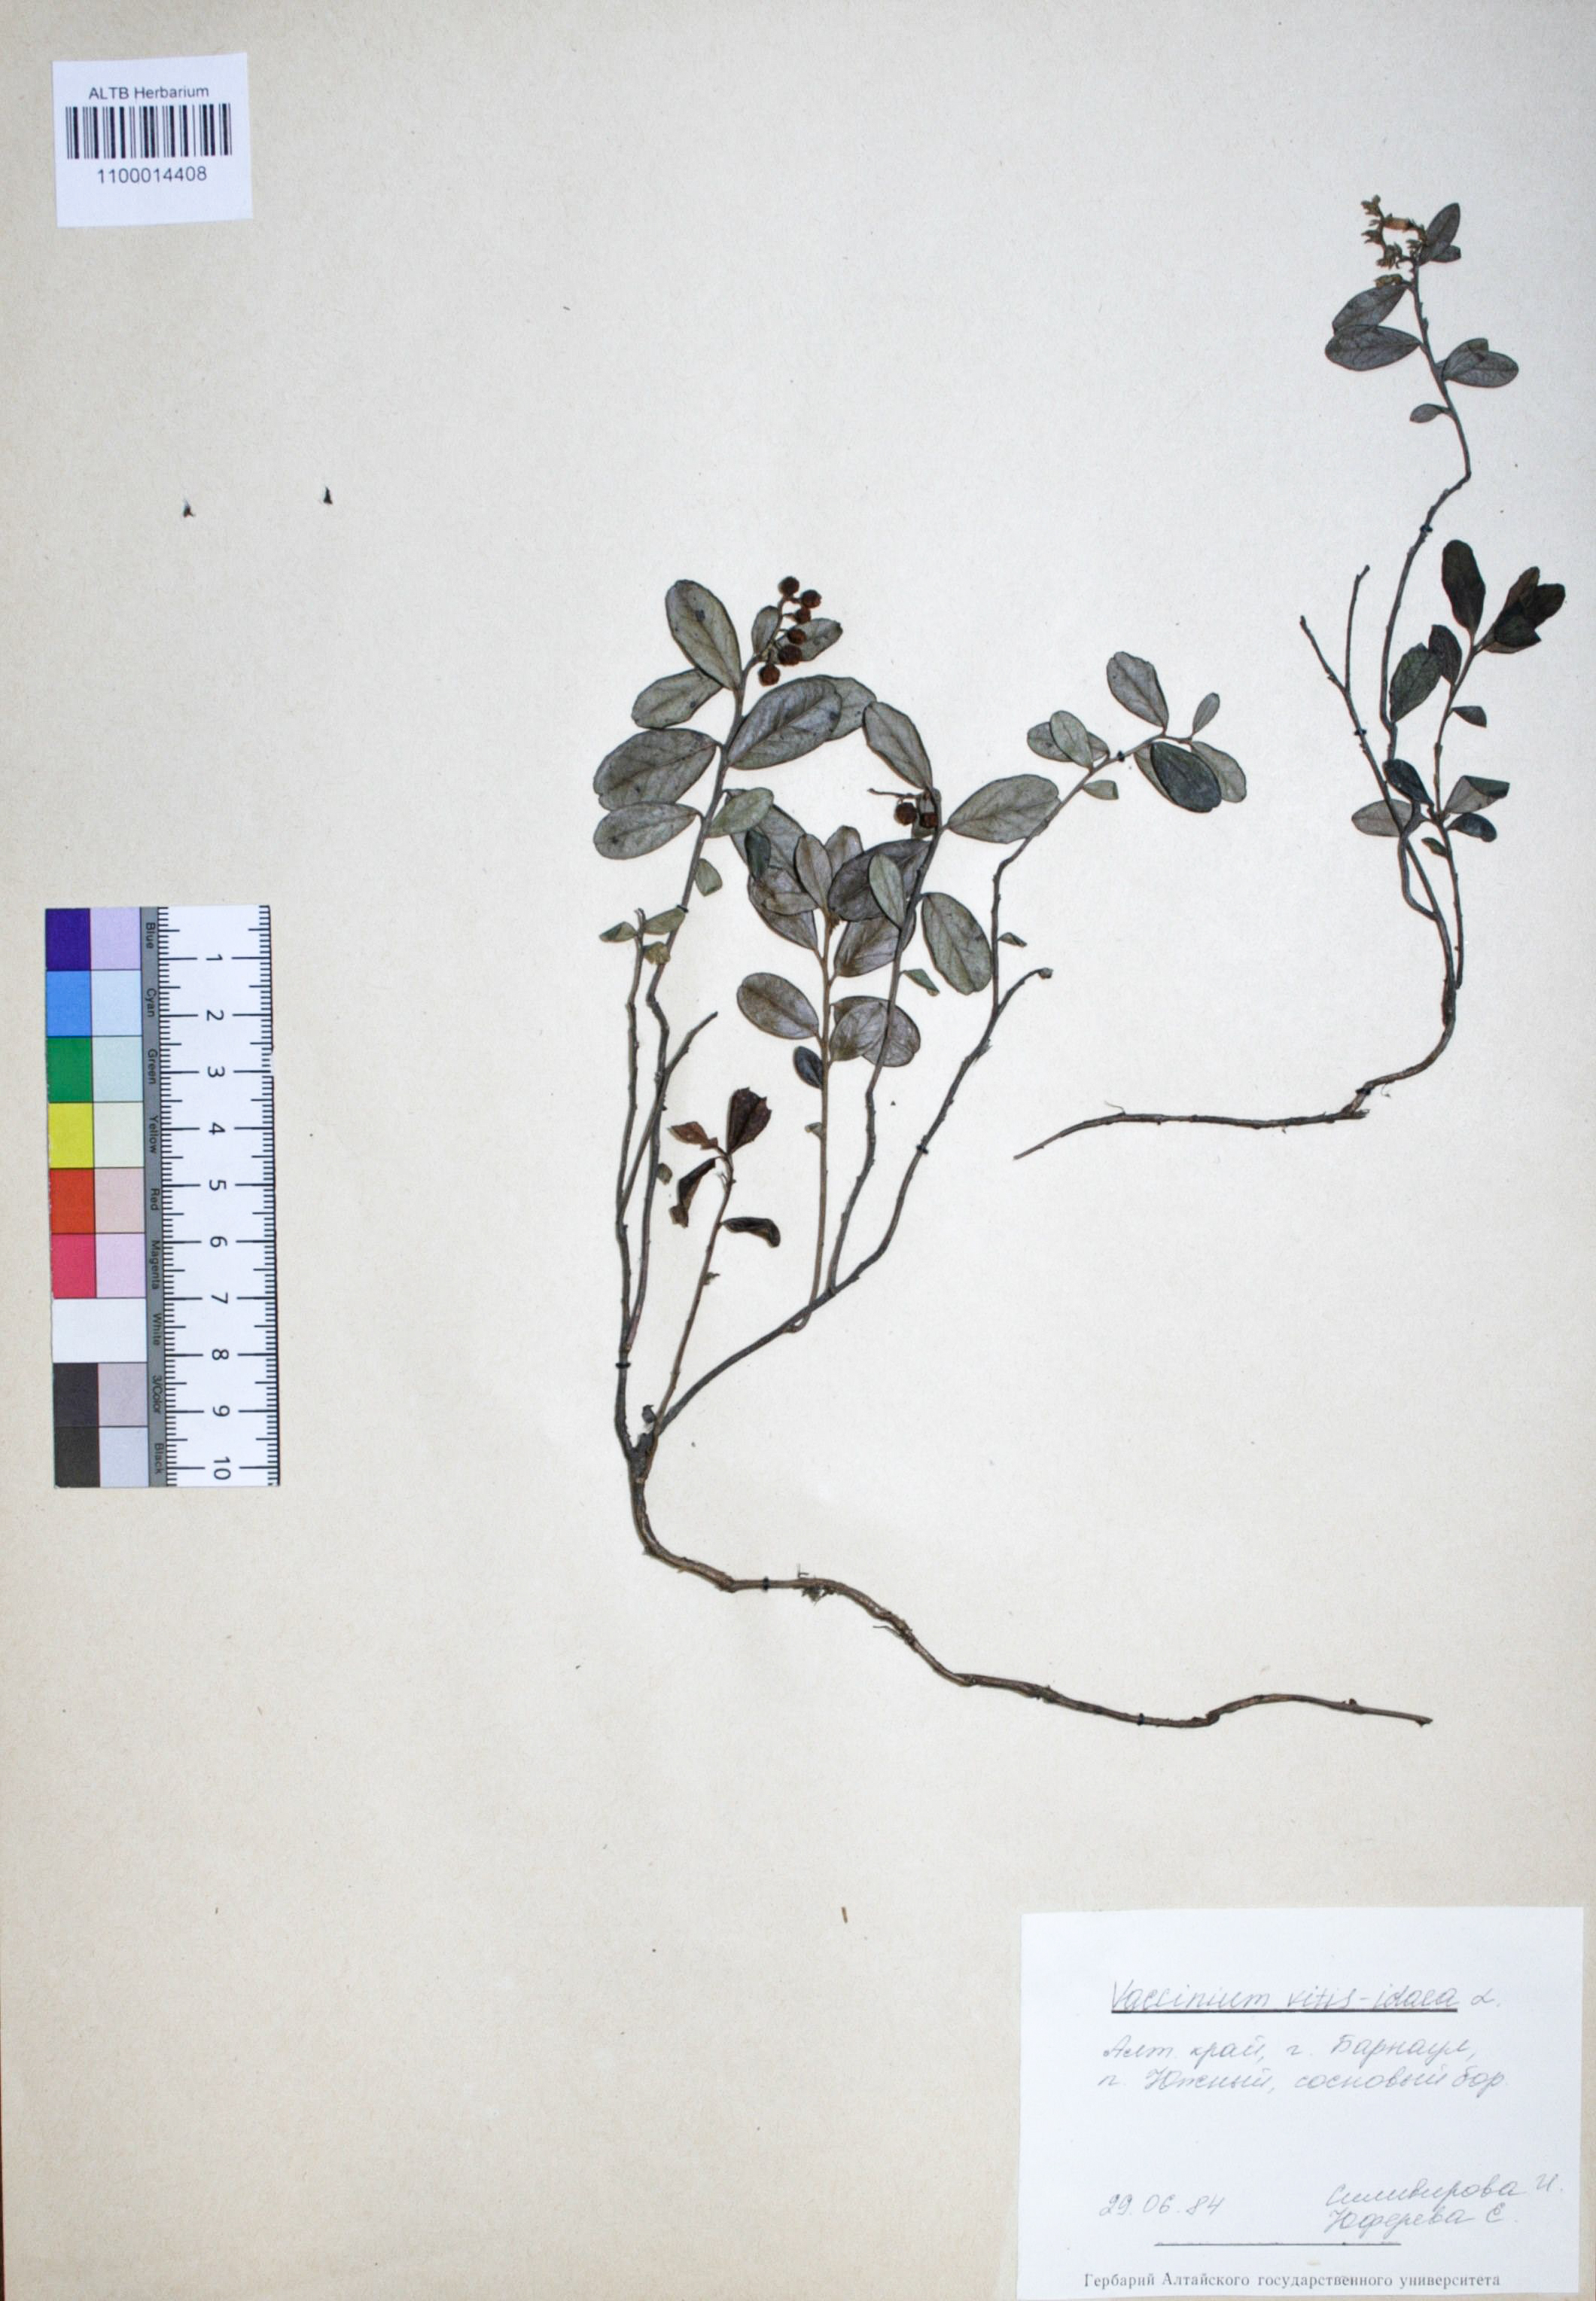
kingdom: Plantae
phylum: Tracheophyta
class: Magnoliopsida
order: Ericales
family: Ericaceae
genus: Vaccinium
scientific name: Vaccinium vitis-idaea
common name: Cowberry
